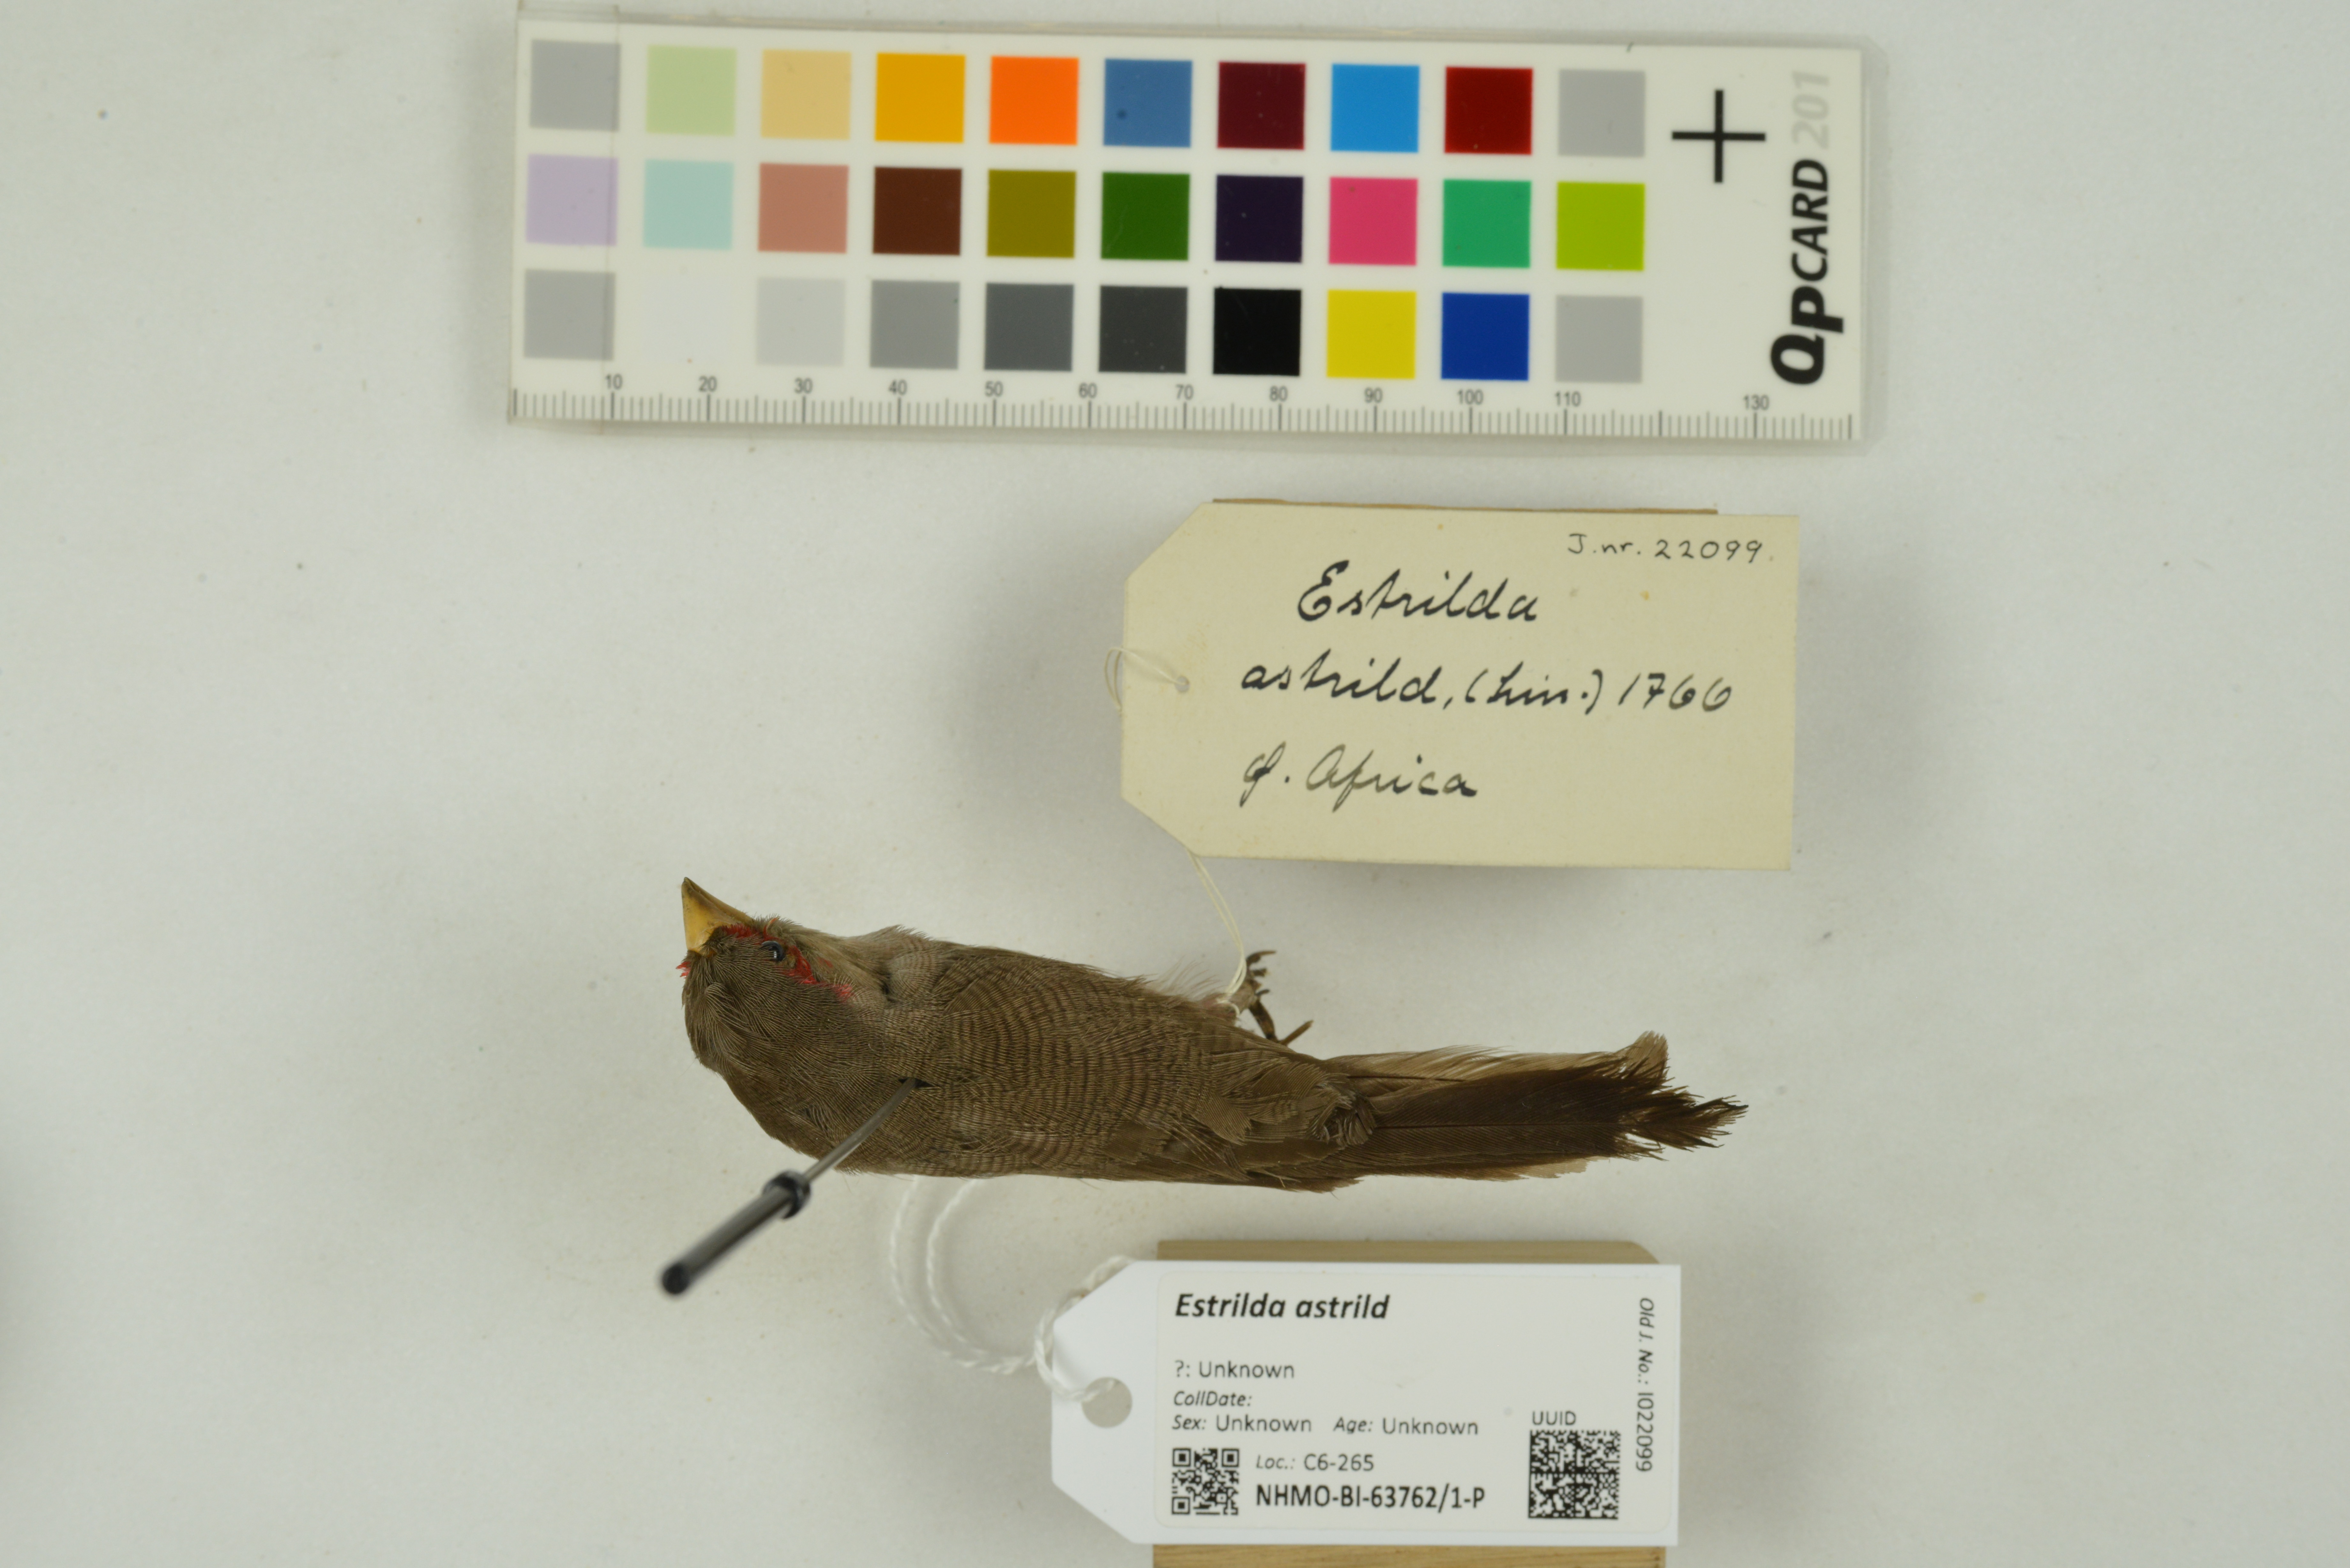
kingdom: Animalia
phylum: Chordata
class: Aves
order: Passeriformes
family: Estrildidae
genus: Estrilda
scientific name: Estrilda astrild
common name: Common waxbill
